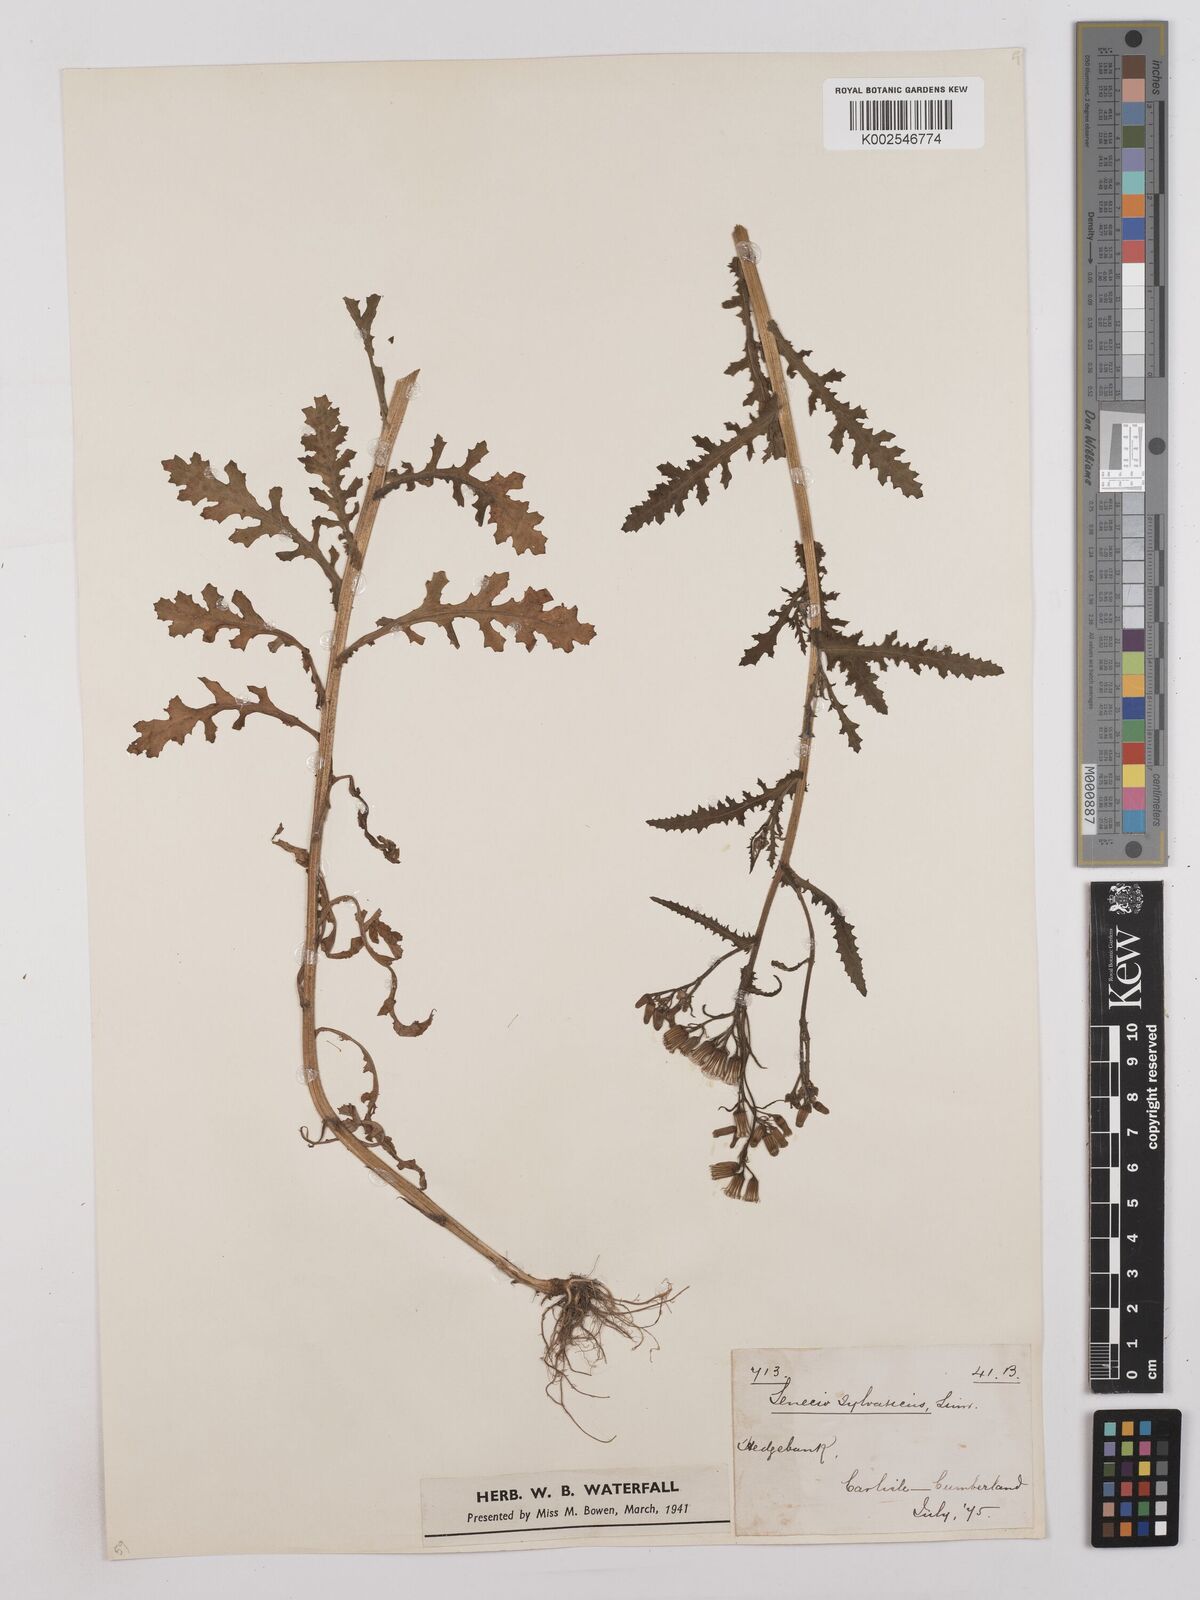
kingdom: Plantae
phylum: Tracheophyta
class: Magnoliopsida
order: Asterales
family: Asteraceae
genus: Senecio
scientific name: Senecio sylvaticus
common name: Woodland ragwort
